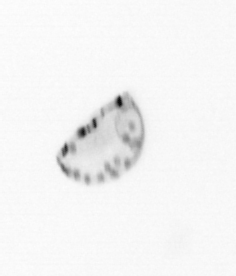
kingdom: Chromista
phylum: Ochrophyta
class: Bacillariophyceae
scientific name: Bacillariophyceae
